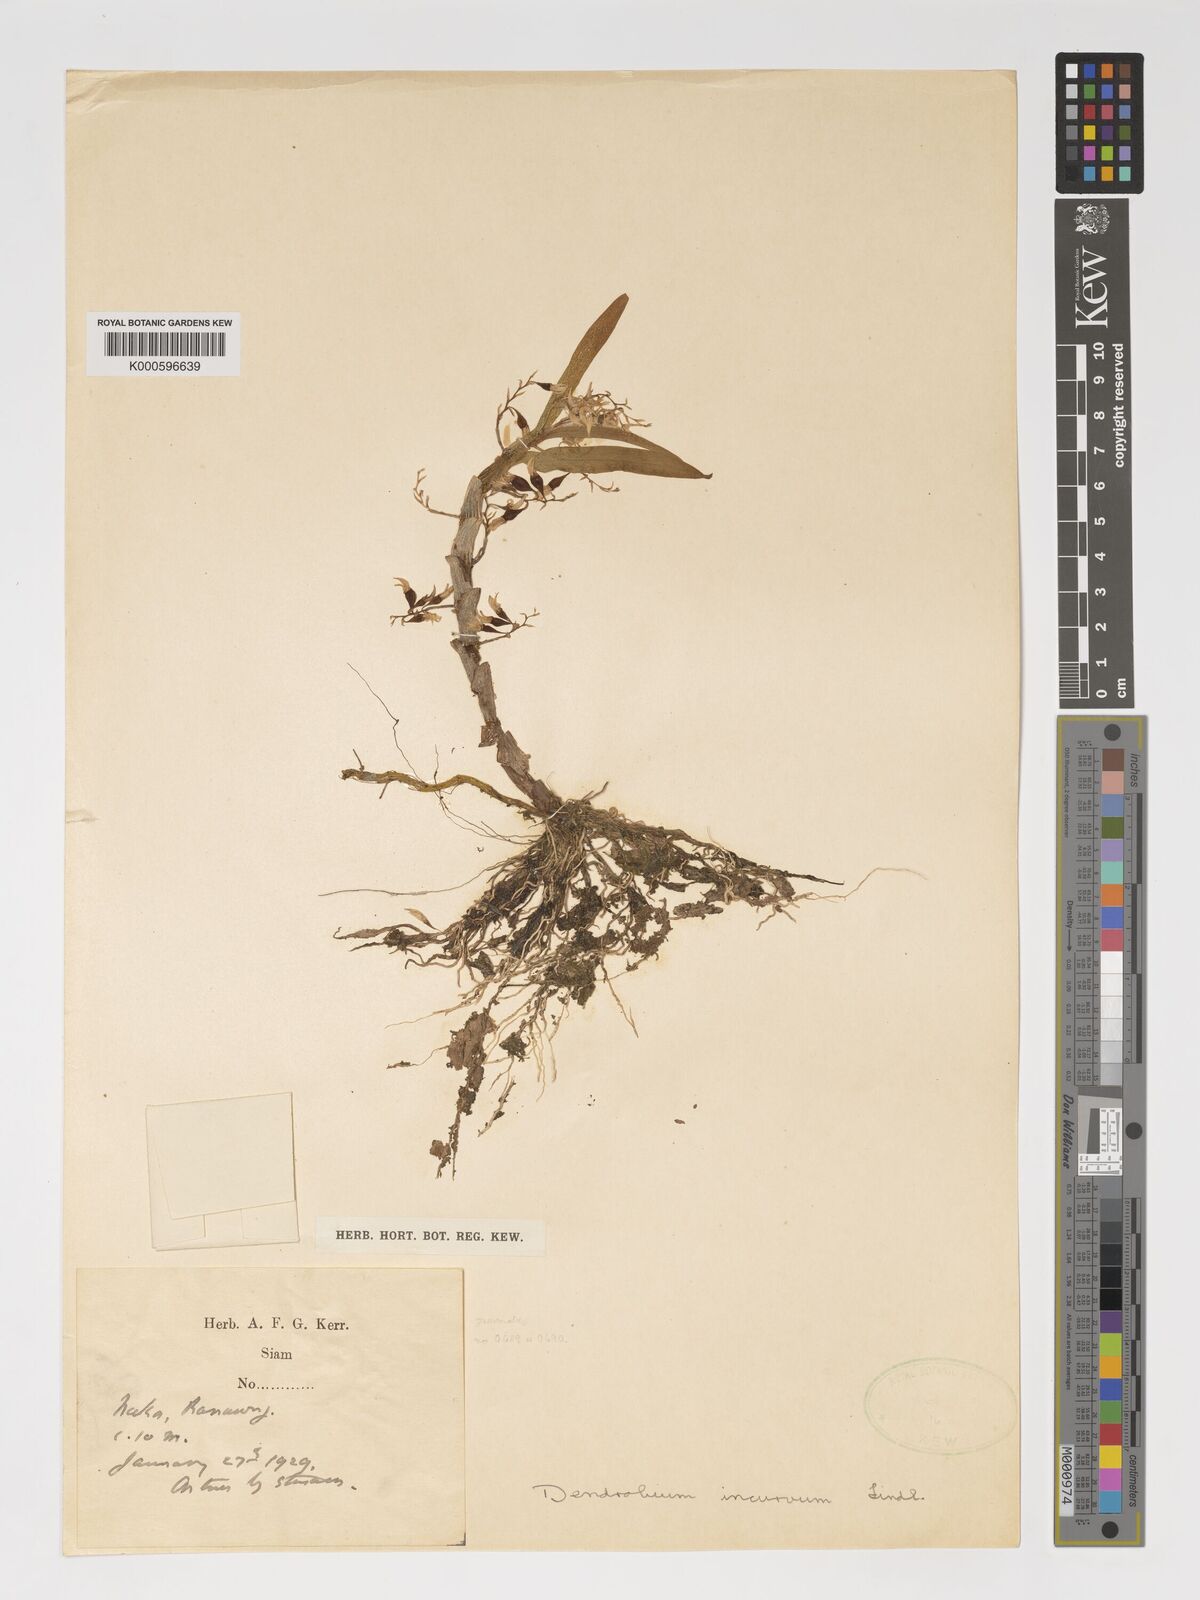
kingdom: Plantae
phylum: Tracheophyta
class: Liliopsida
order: Asparagales
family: Orchidaceae
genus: Dendrobium
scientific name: Dendrobium incurvum
